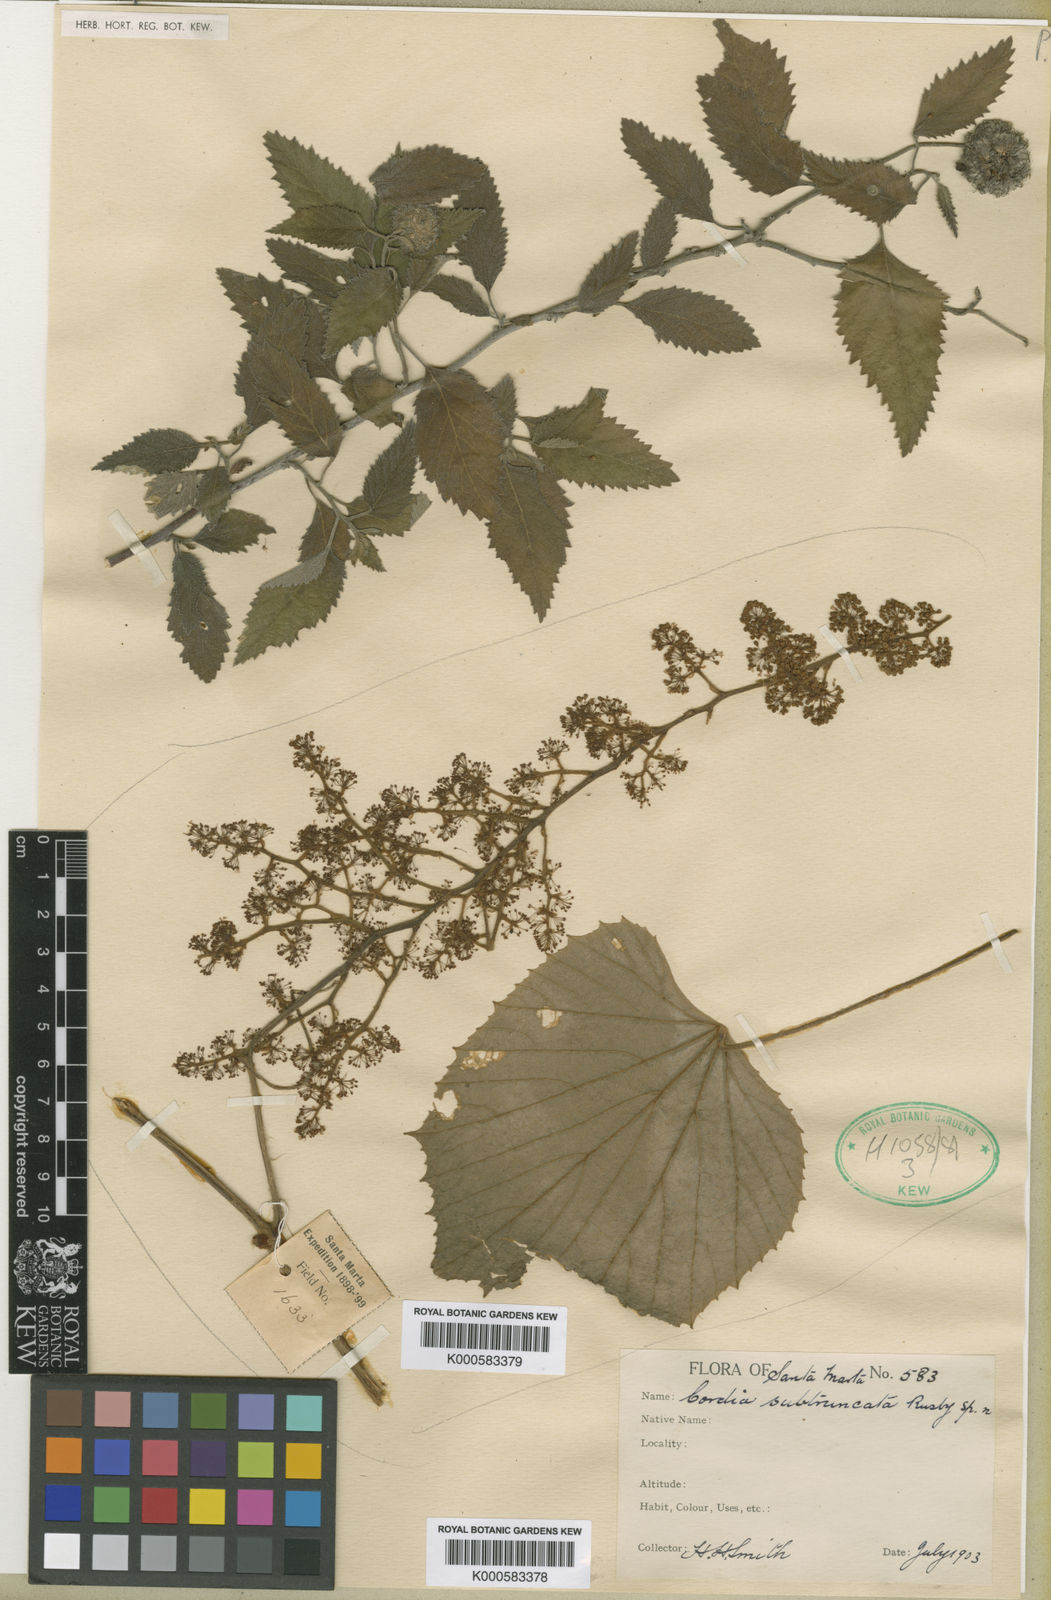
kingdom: Plantae
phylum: Tracheophyta
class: Magnoliopsida
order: Boraginales
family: Cordiaceae
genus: Varronia
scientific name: Varronia subtruncata
